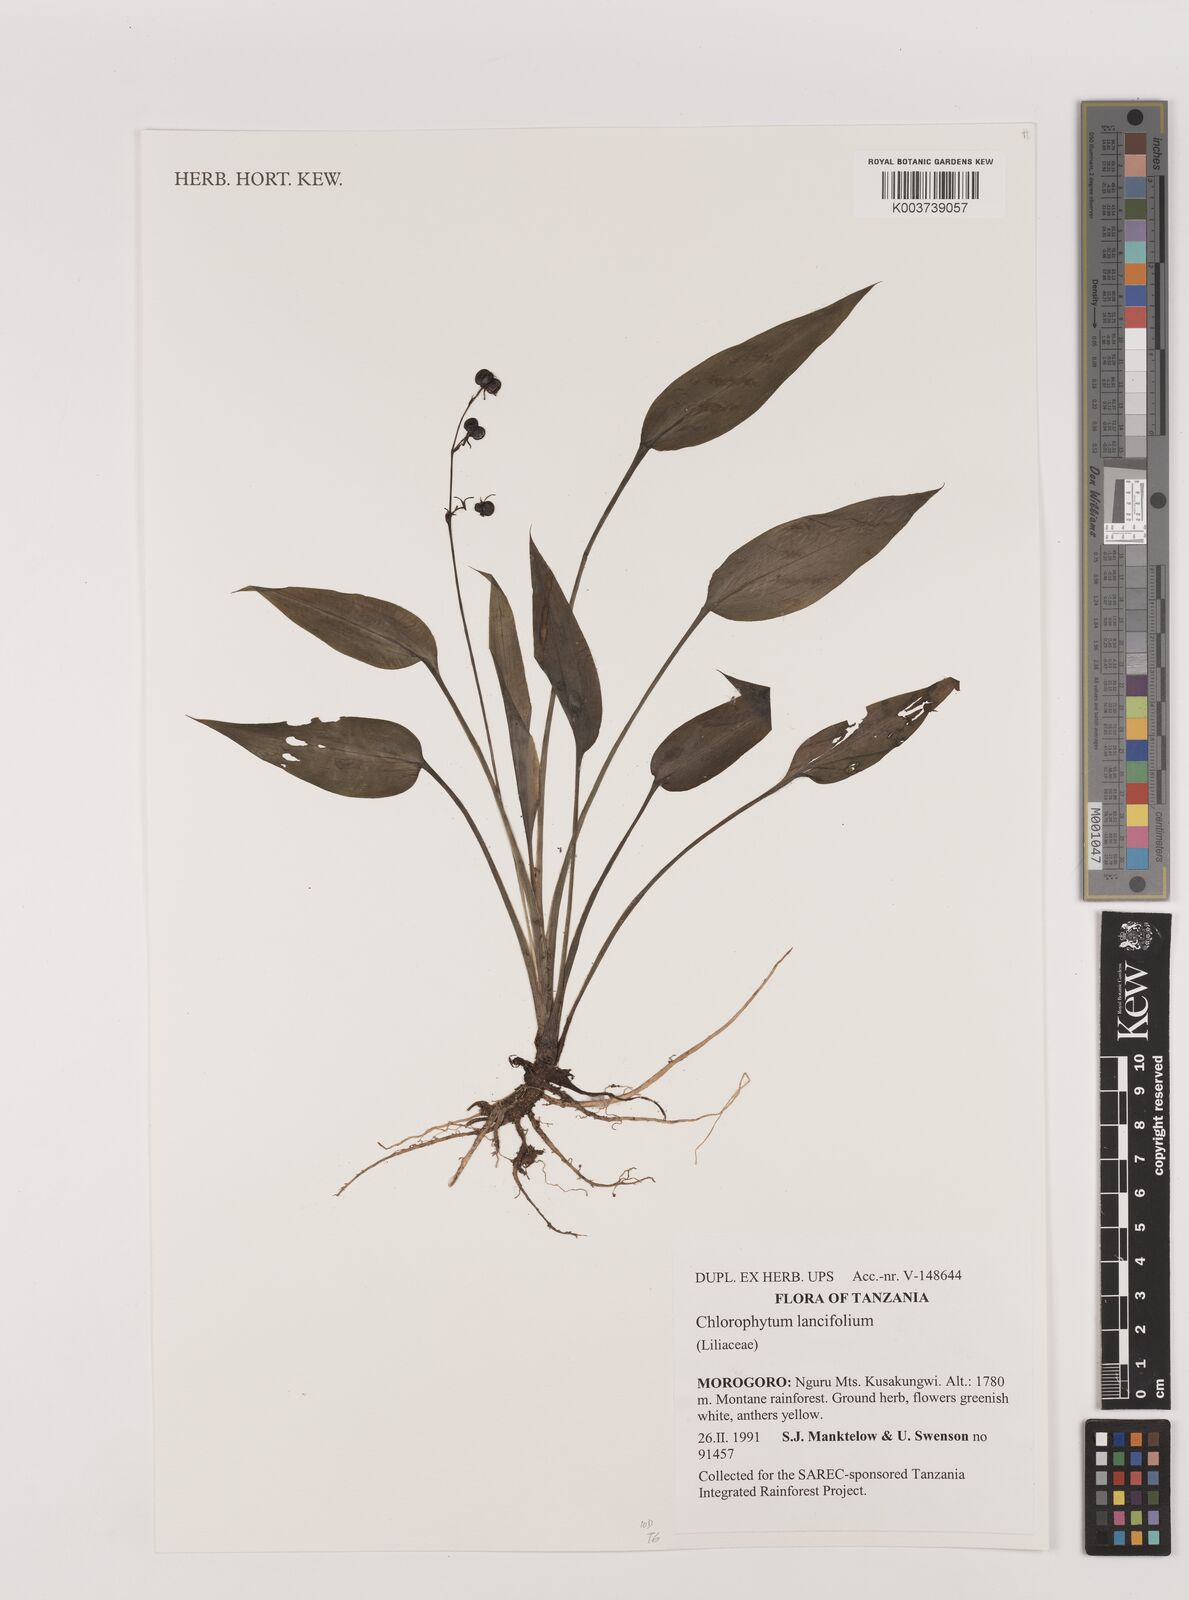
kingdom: Plantae
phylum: Tracheophyta
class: Liliopsida
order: Asparagales
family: Asparagaceae
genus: Chlorophytum
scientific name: Chlorophytum lancifolium
